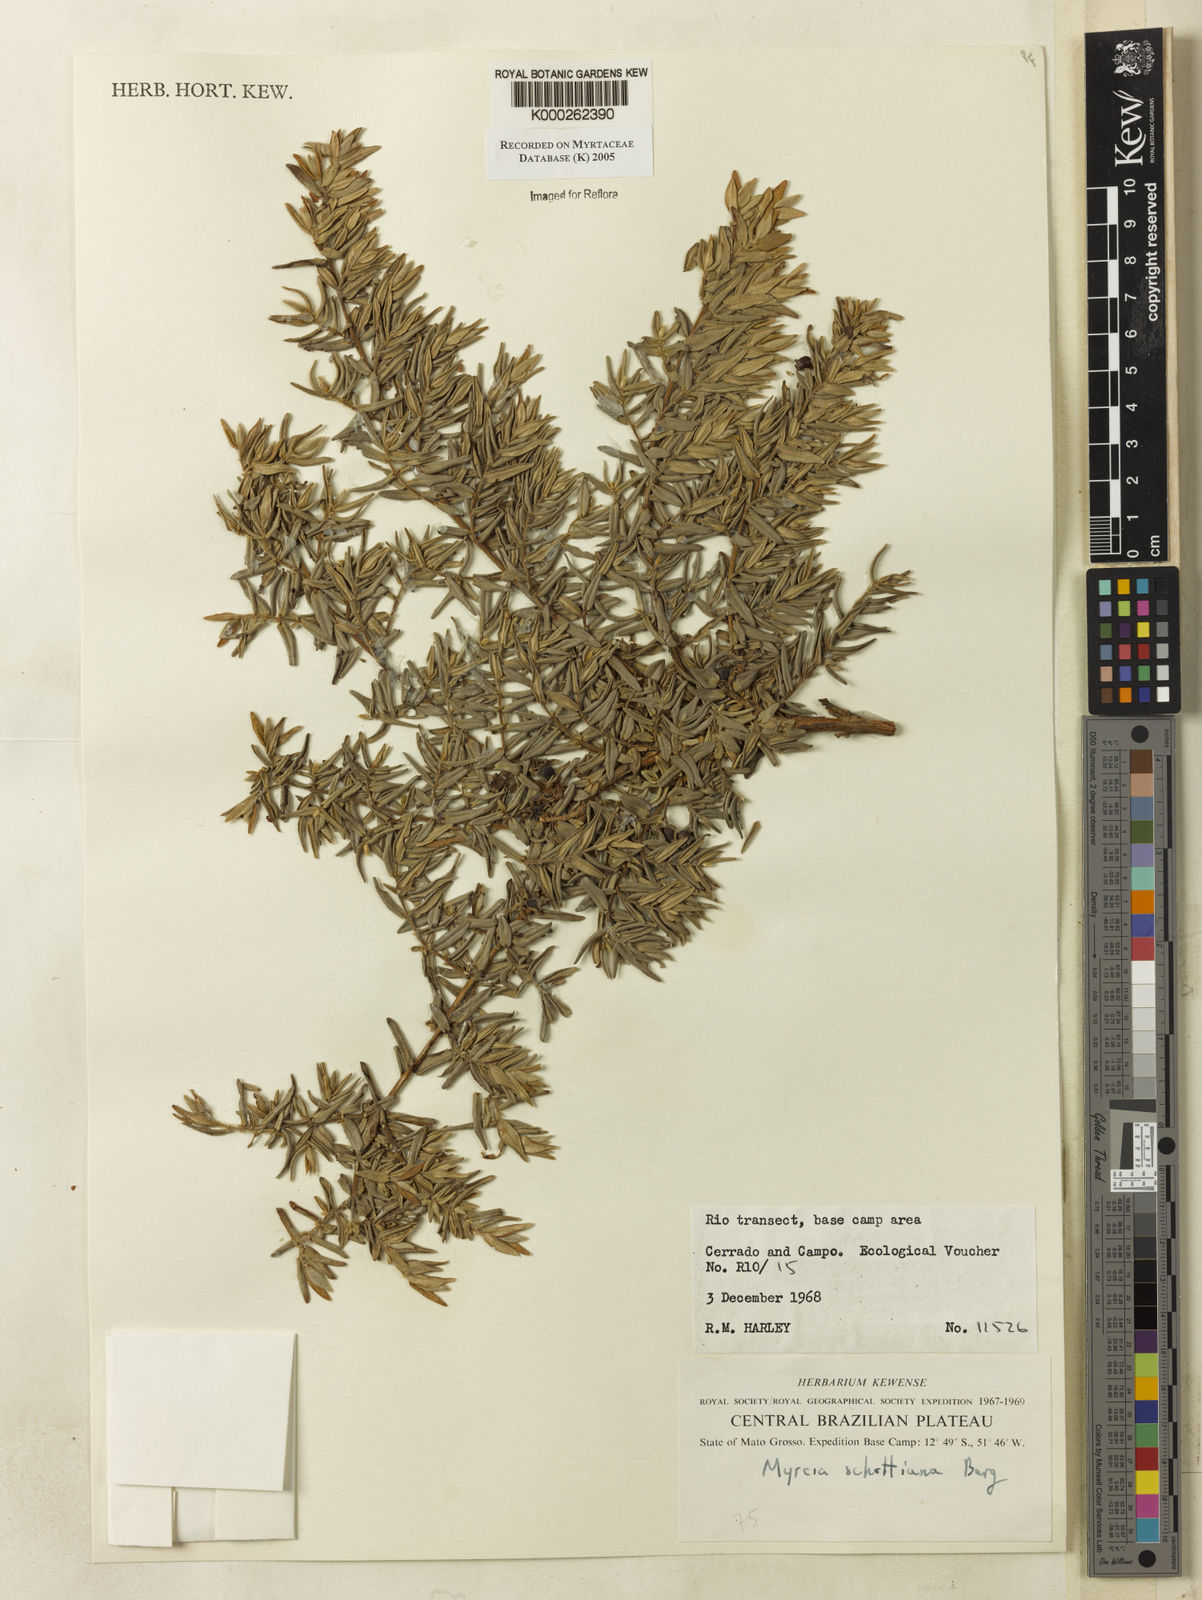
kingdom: Plantae
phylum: Tracheophyta
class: Magnoliopsida
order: Myrtales
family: Myrtaceae
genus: Myrcia
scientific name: Myrcia schottiana
